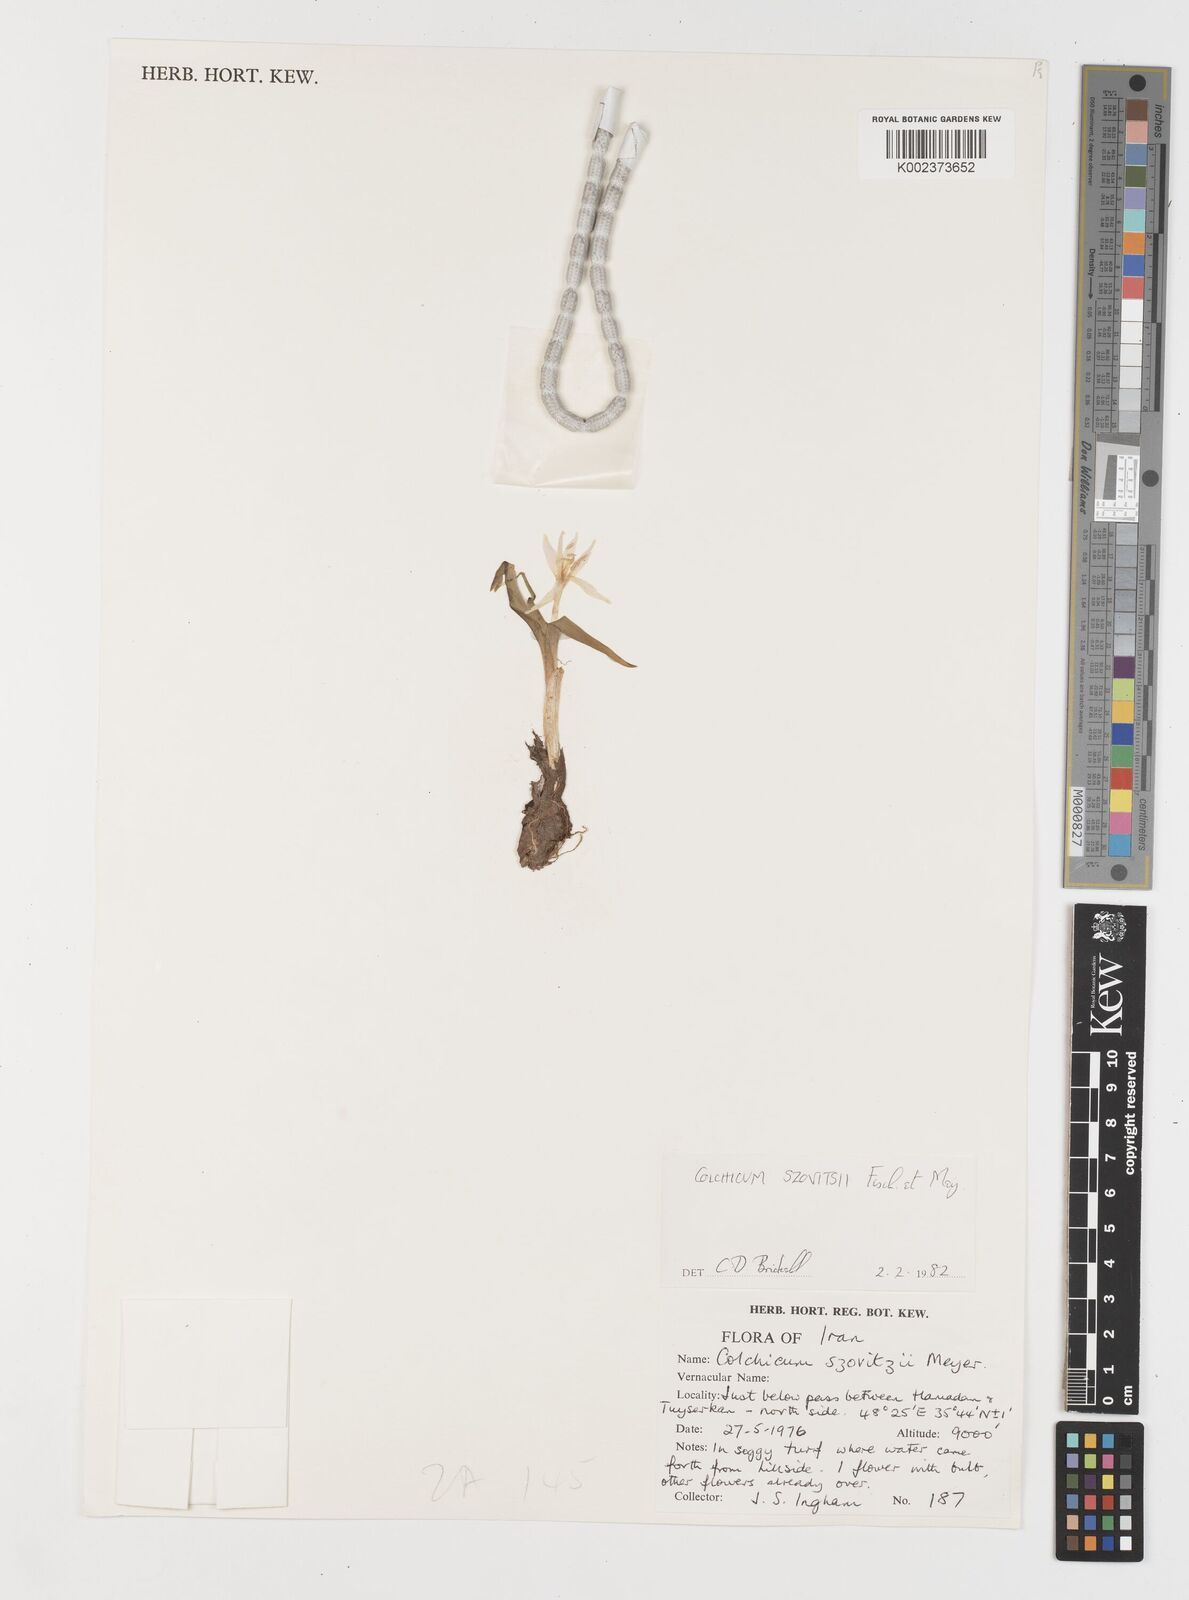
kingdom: Plantae
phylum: Tracheophyta
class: Liliopsida
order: Liliales
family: Colchicaceae
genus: Colchicum
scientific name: Colchicum szovitsii
